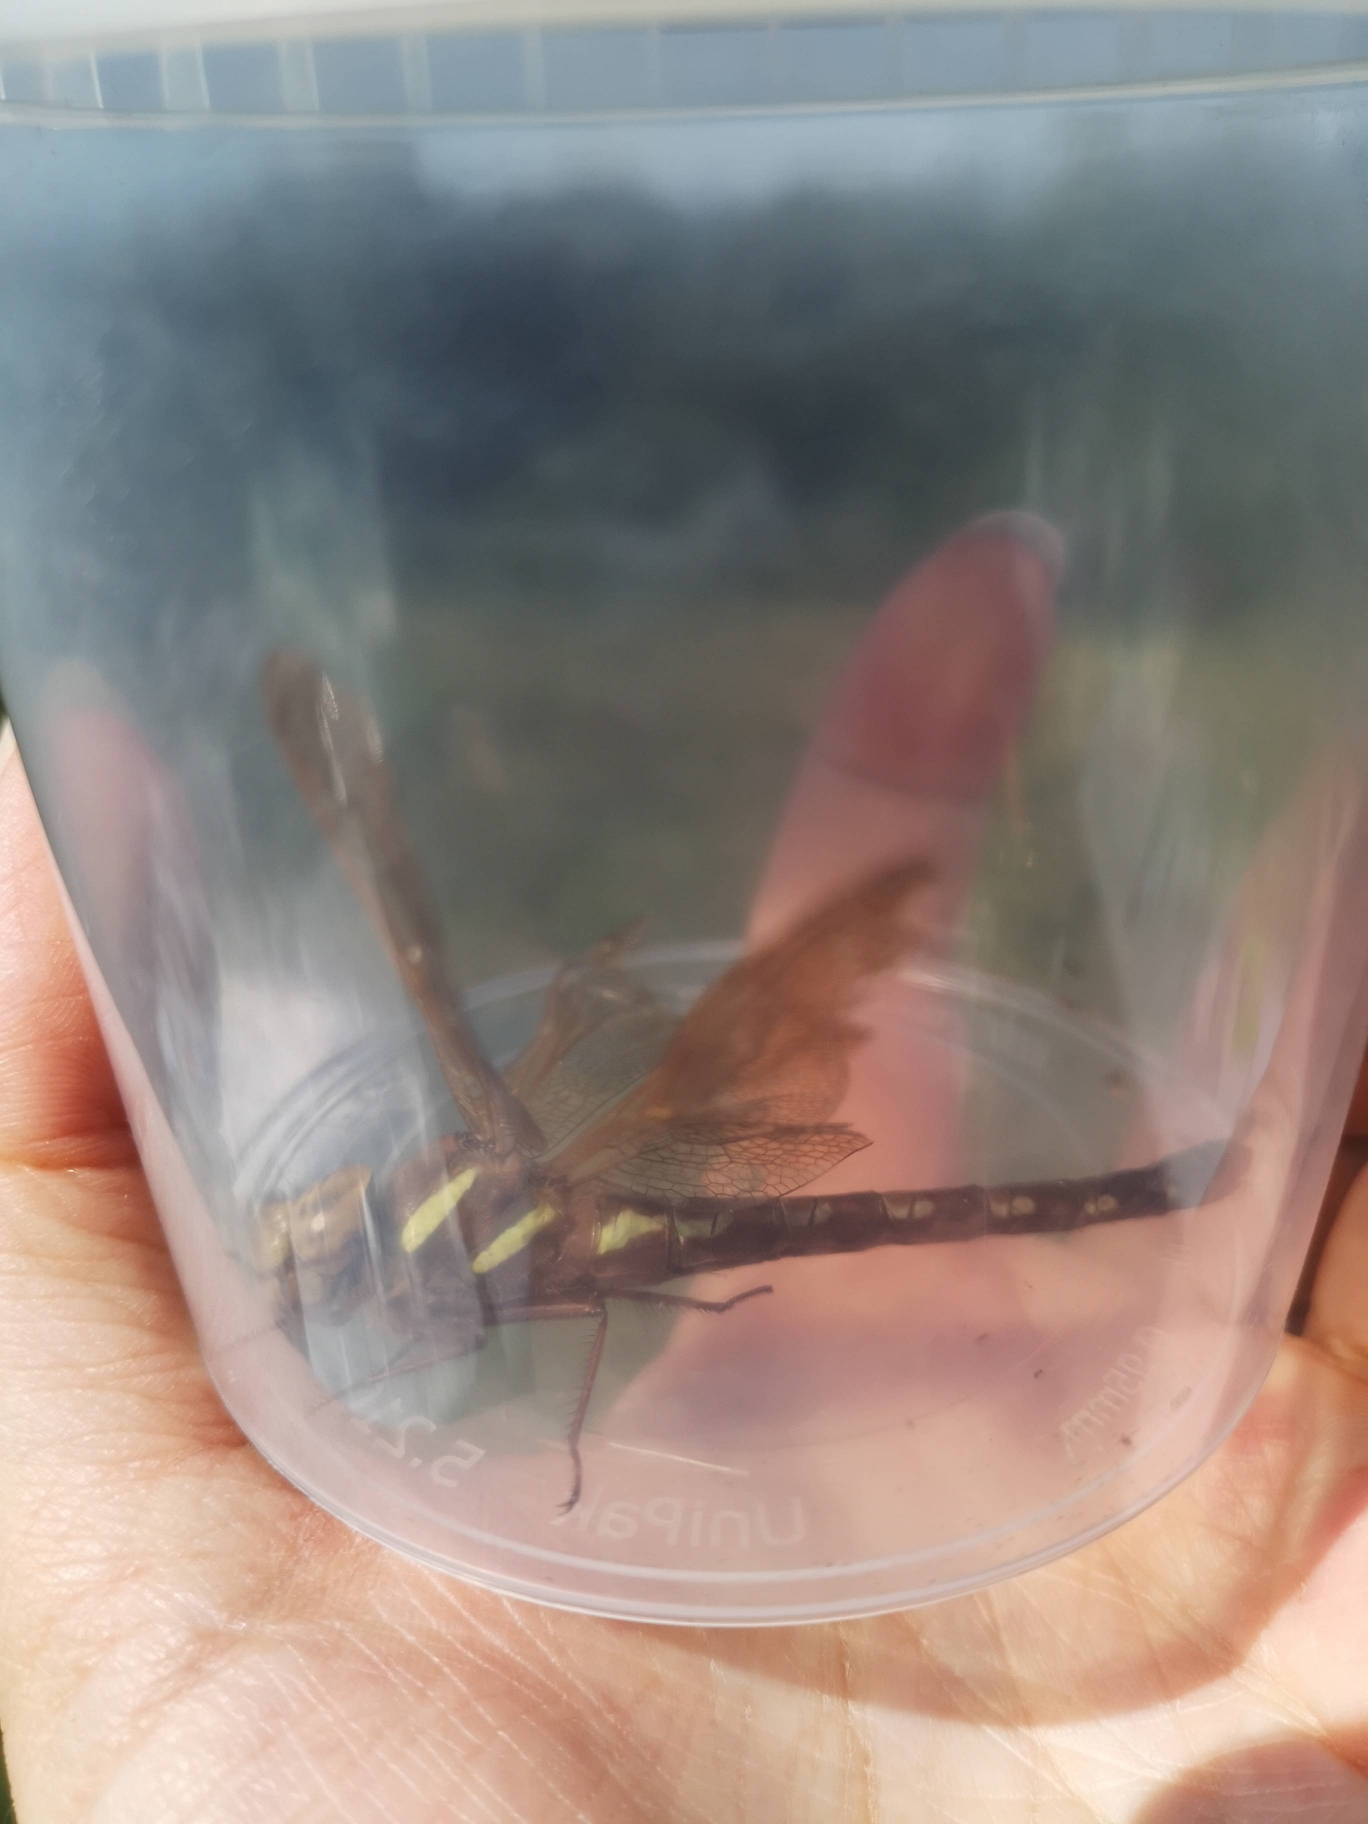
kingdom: Animalia
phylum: Arthropoda
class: Insecta
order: Odonata
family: Aeshnidae
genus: Aeshna
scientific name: Aeshna grandis
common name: Brun mosaikguldsmed
